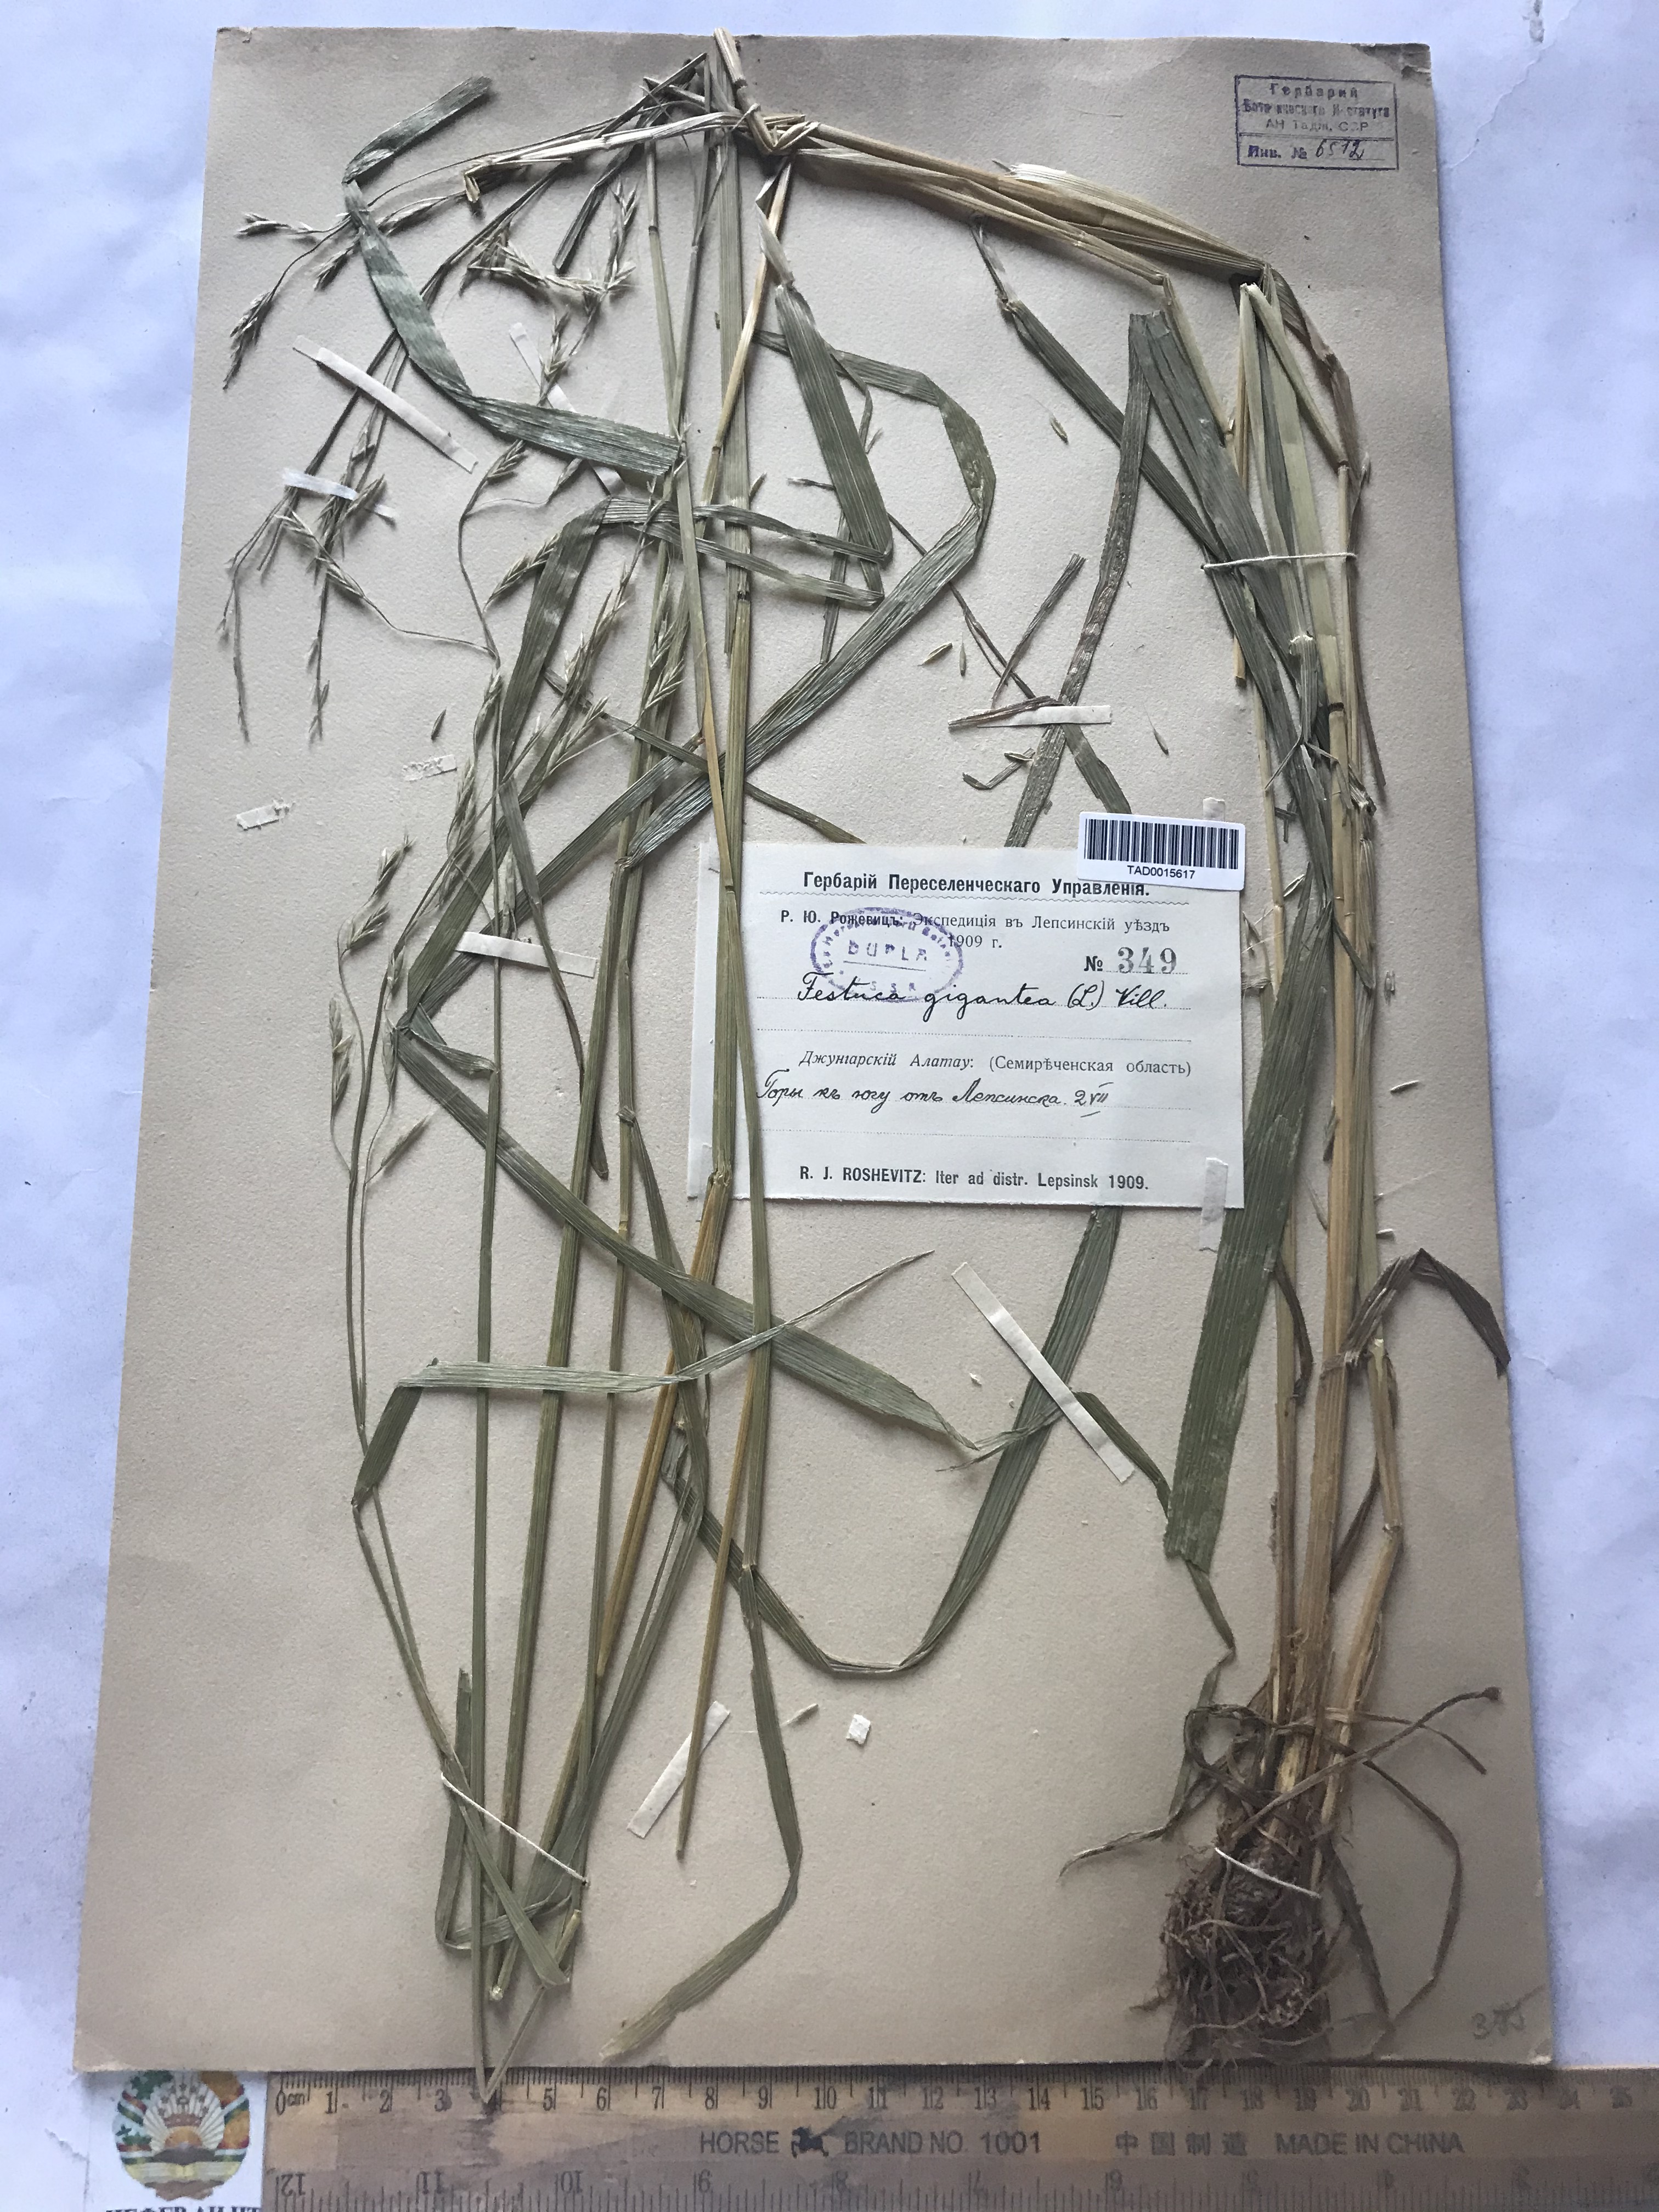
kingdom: Plantae
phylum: Tracheophyta
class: Liliopsida
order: Poales
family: Poaceae
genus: Lolium
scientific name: Lolium giganteum
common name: Giant fescue
